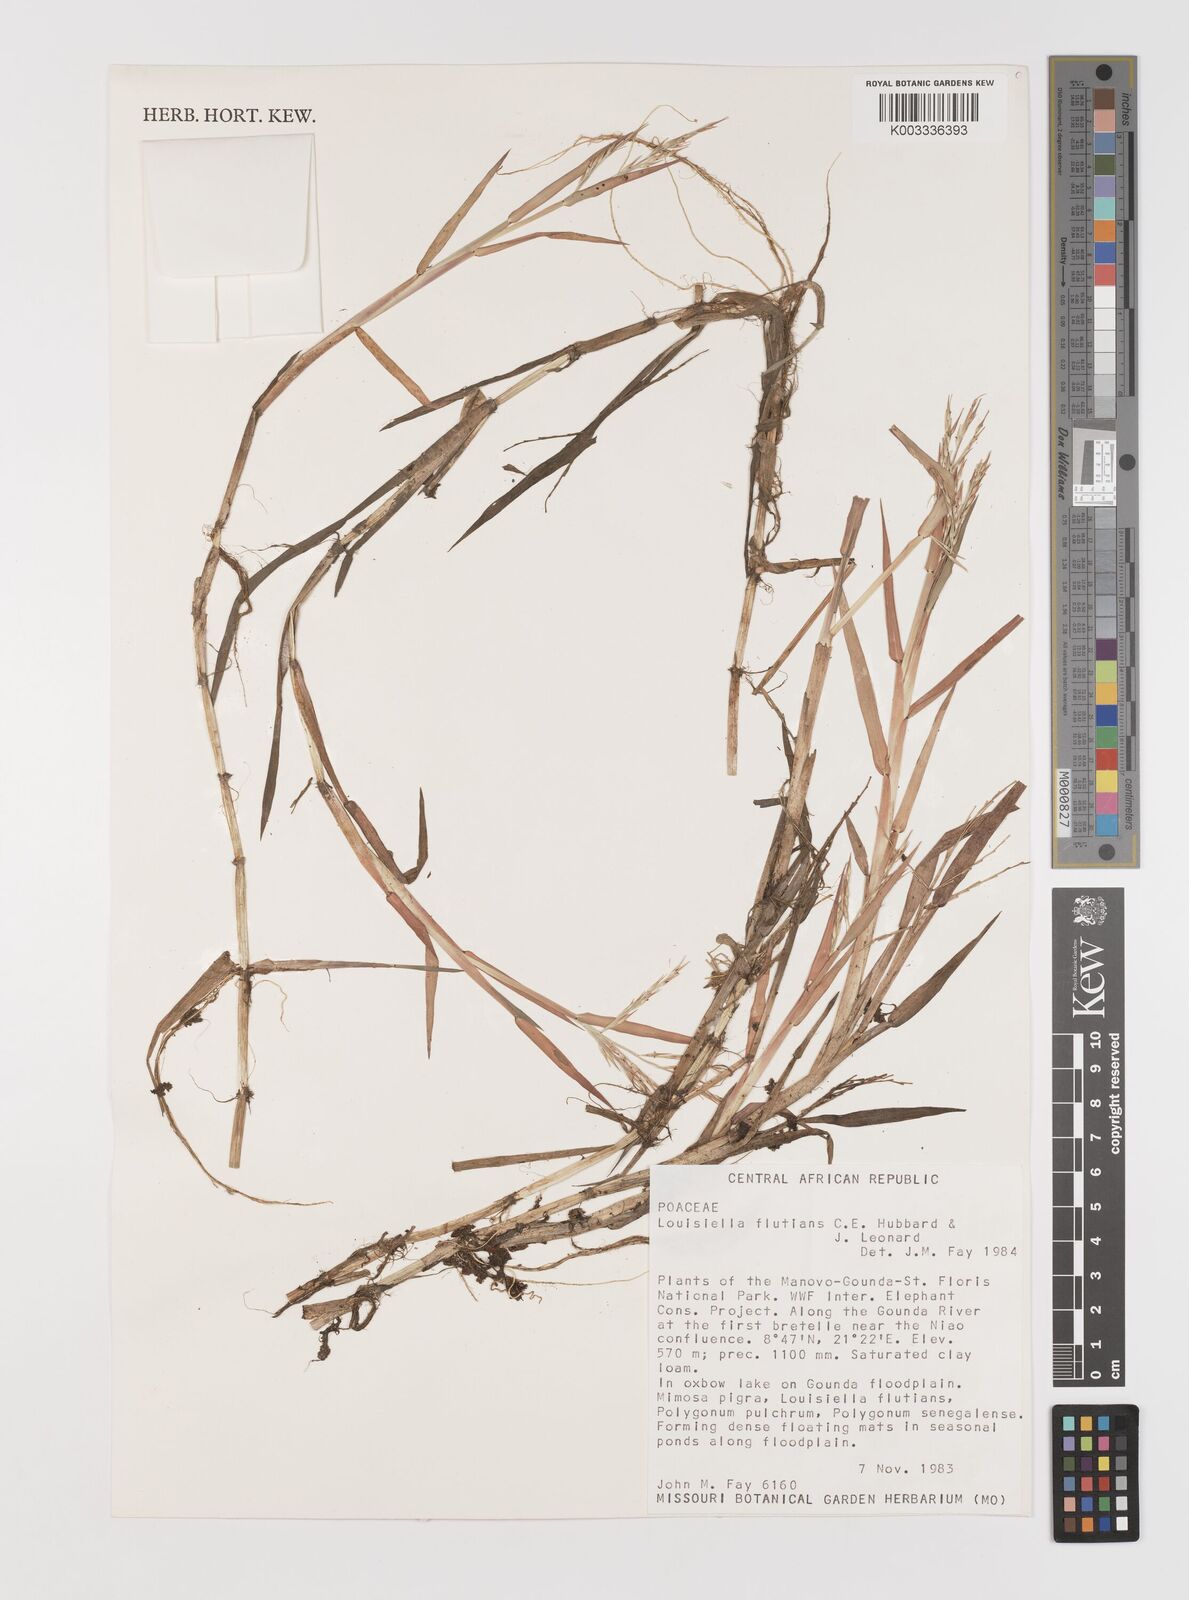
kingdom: Plantae
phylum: Tracheophyta
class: Liliopsida
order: Poales
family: Poaceae
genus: Louisiella
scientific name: Louisiella fluitans
